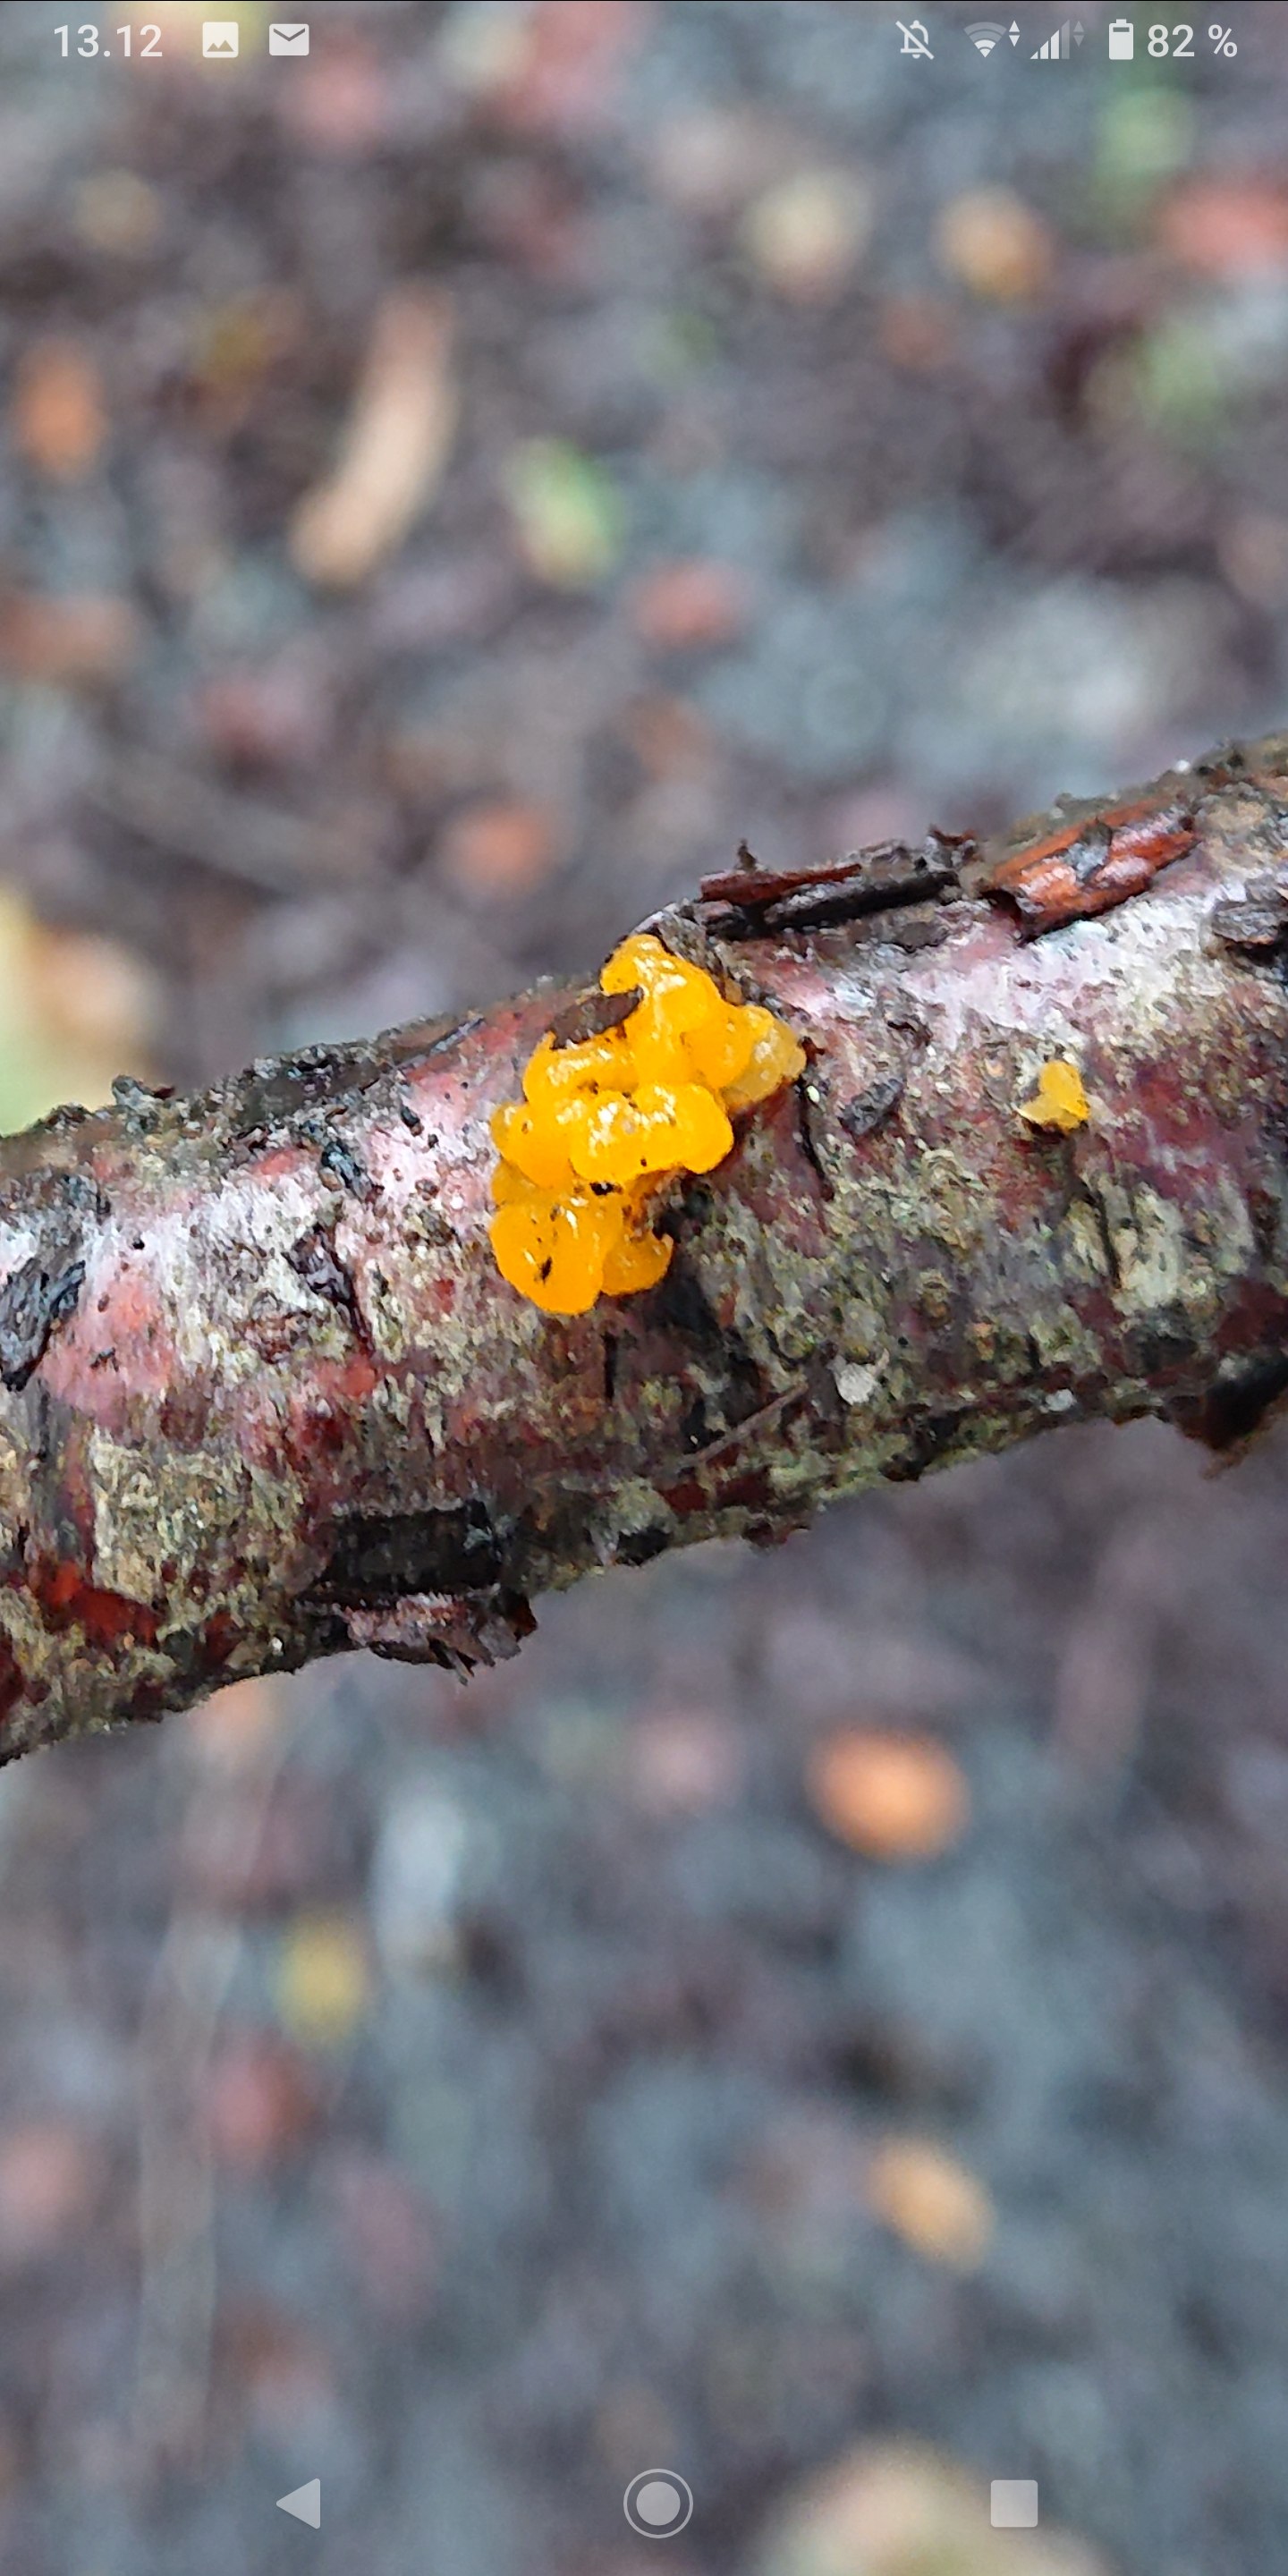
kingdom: Fungi
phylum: Basidiomycota
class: Tremellomycetes
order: Tremellales
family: Tremellaceae
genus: Tremella
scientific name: Tremella mesenterica
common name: gul bævresvamp
